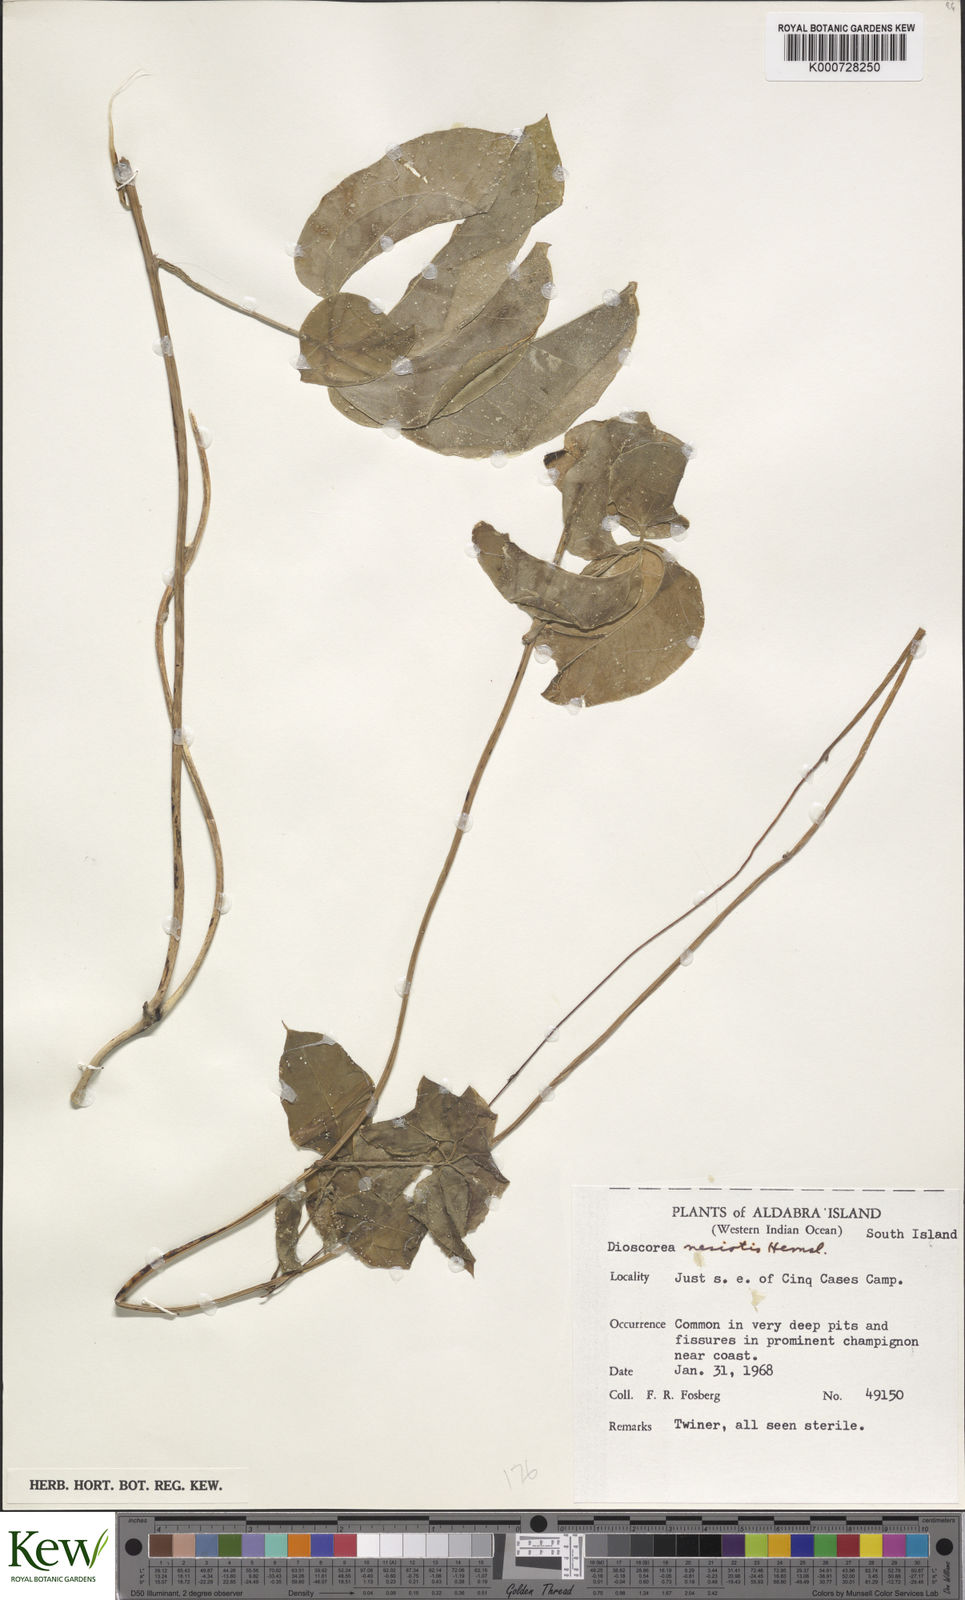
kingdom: Plantae
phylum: Tracheophyta
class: Liliopsida
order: Dioscoreales
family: Dioscoreaceae
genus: Dioscorea
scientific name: Dioscorea bemarivensis
